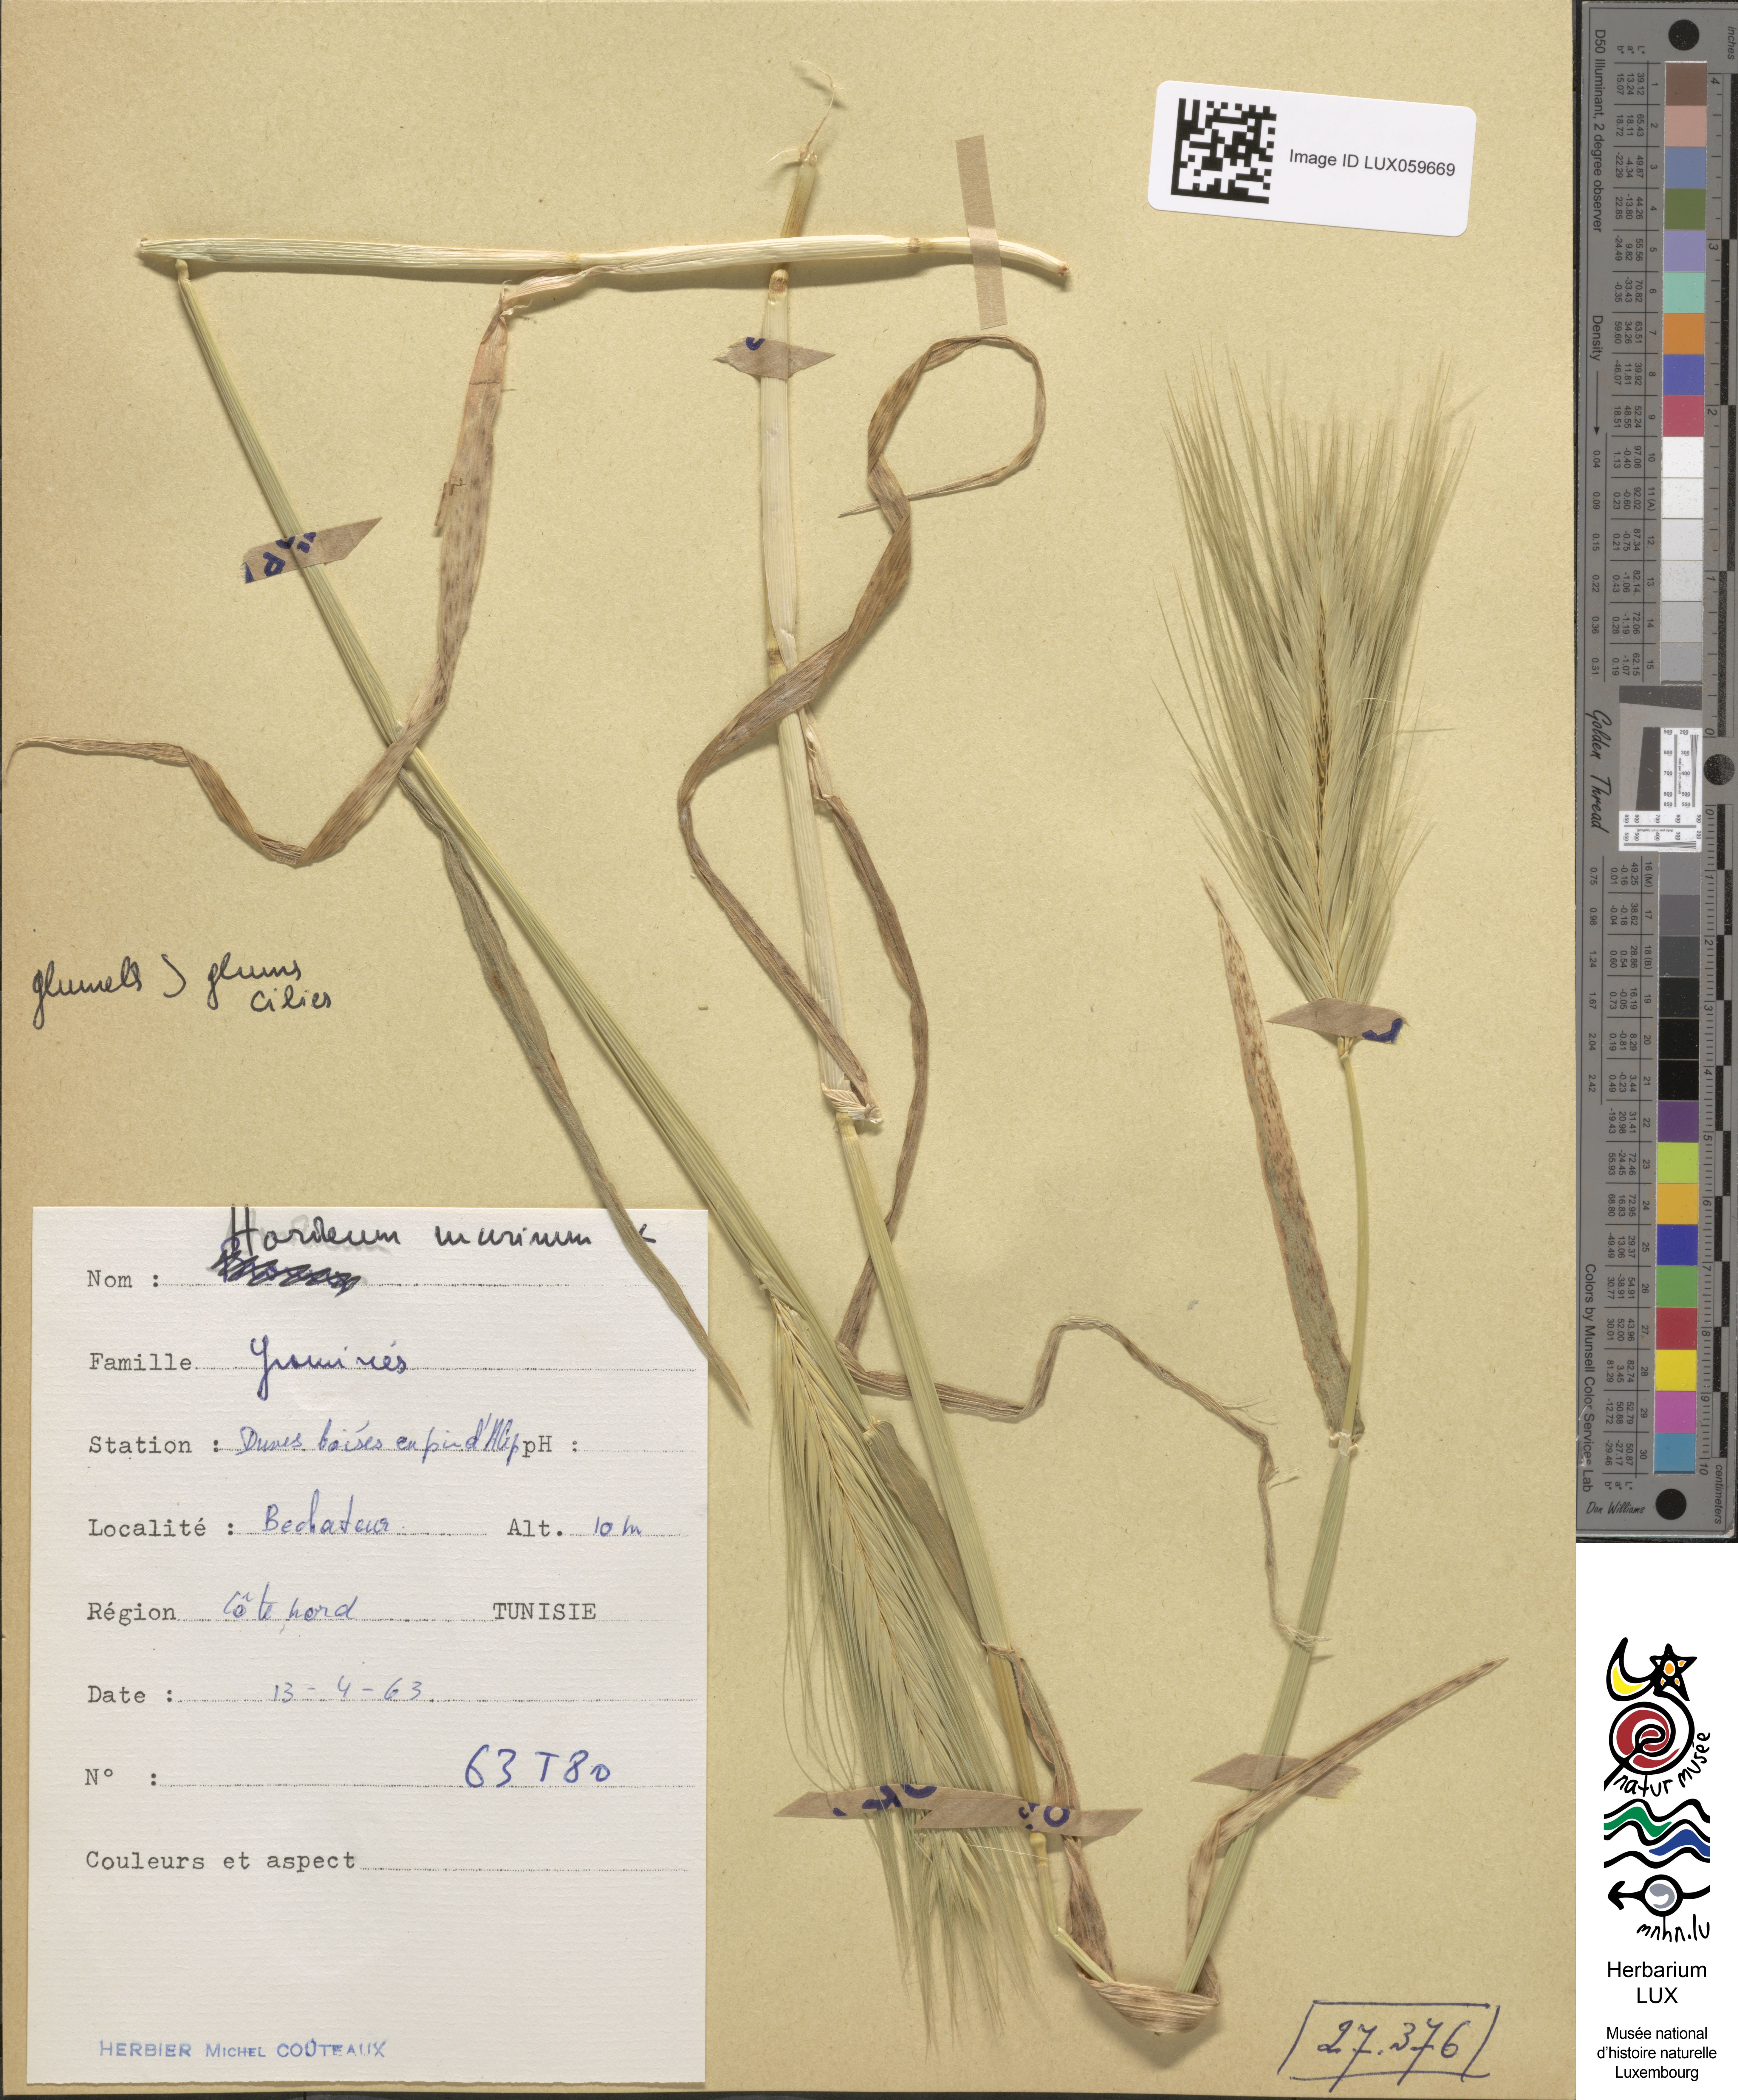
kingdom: Plantae
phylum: Tracheophyta
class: Liliopsida
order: Poales
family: Poaceae
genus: Hordeum
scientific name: Hordeum murinum
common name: Wall barley
